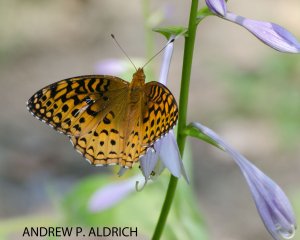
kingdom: Animalia
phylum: Arthropoda
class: Insecta
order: Lepidoptera
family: Nymphalidae
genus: Speyeria
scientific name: Speyeria aphrodite
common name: Aphrodite Fritillary
